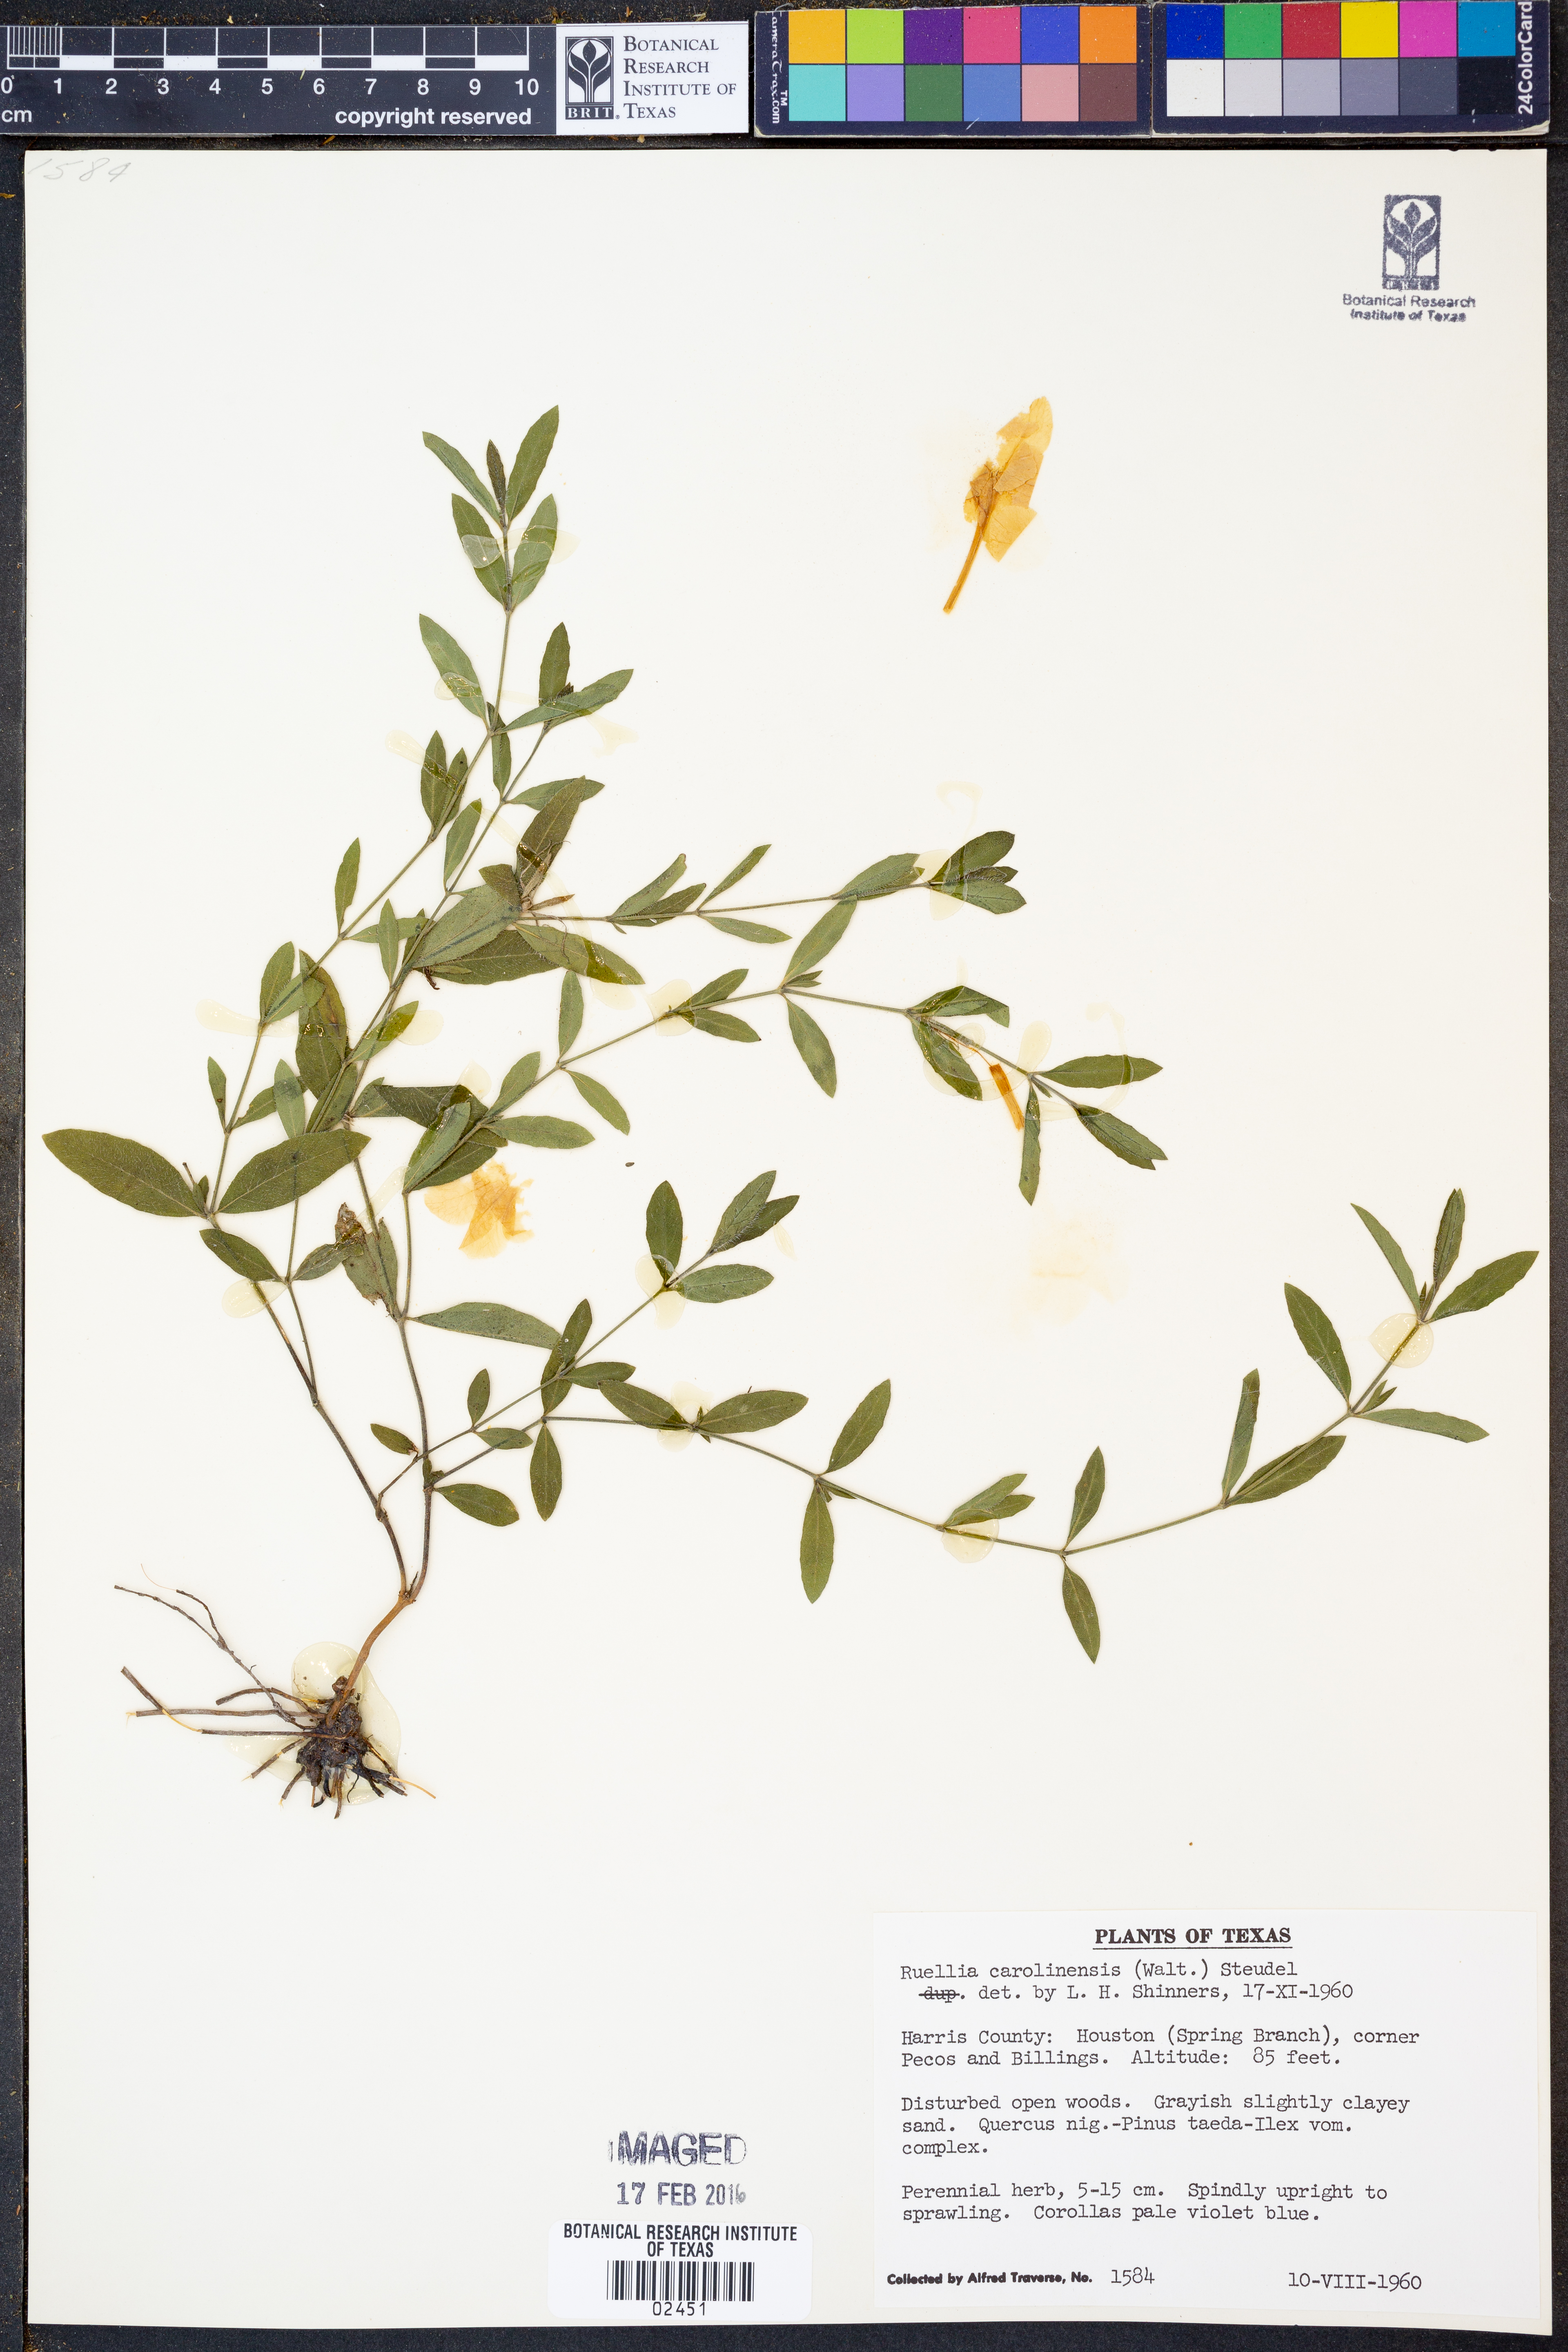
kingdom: Plantae
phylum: Tracheophyta
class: Magnoliopsida
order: Lamiales
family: Acanthaceae
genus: Ruellia
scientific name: Ruellia caroliniensis
